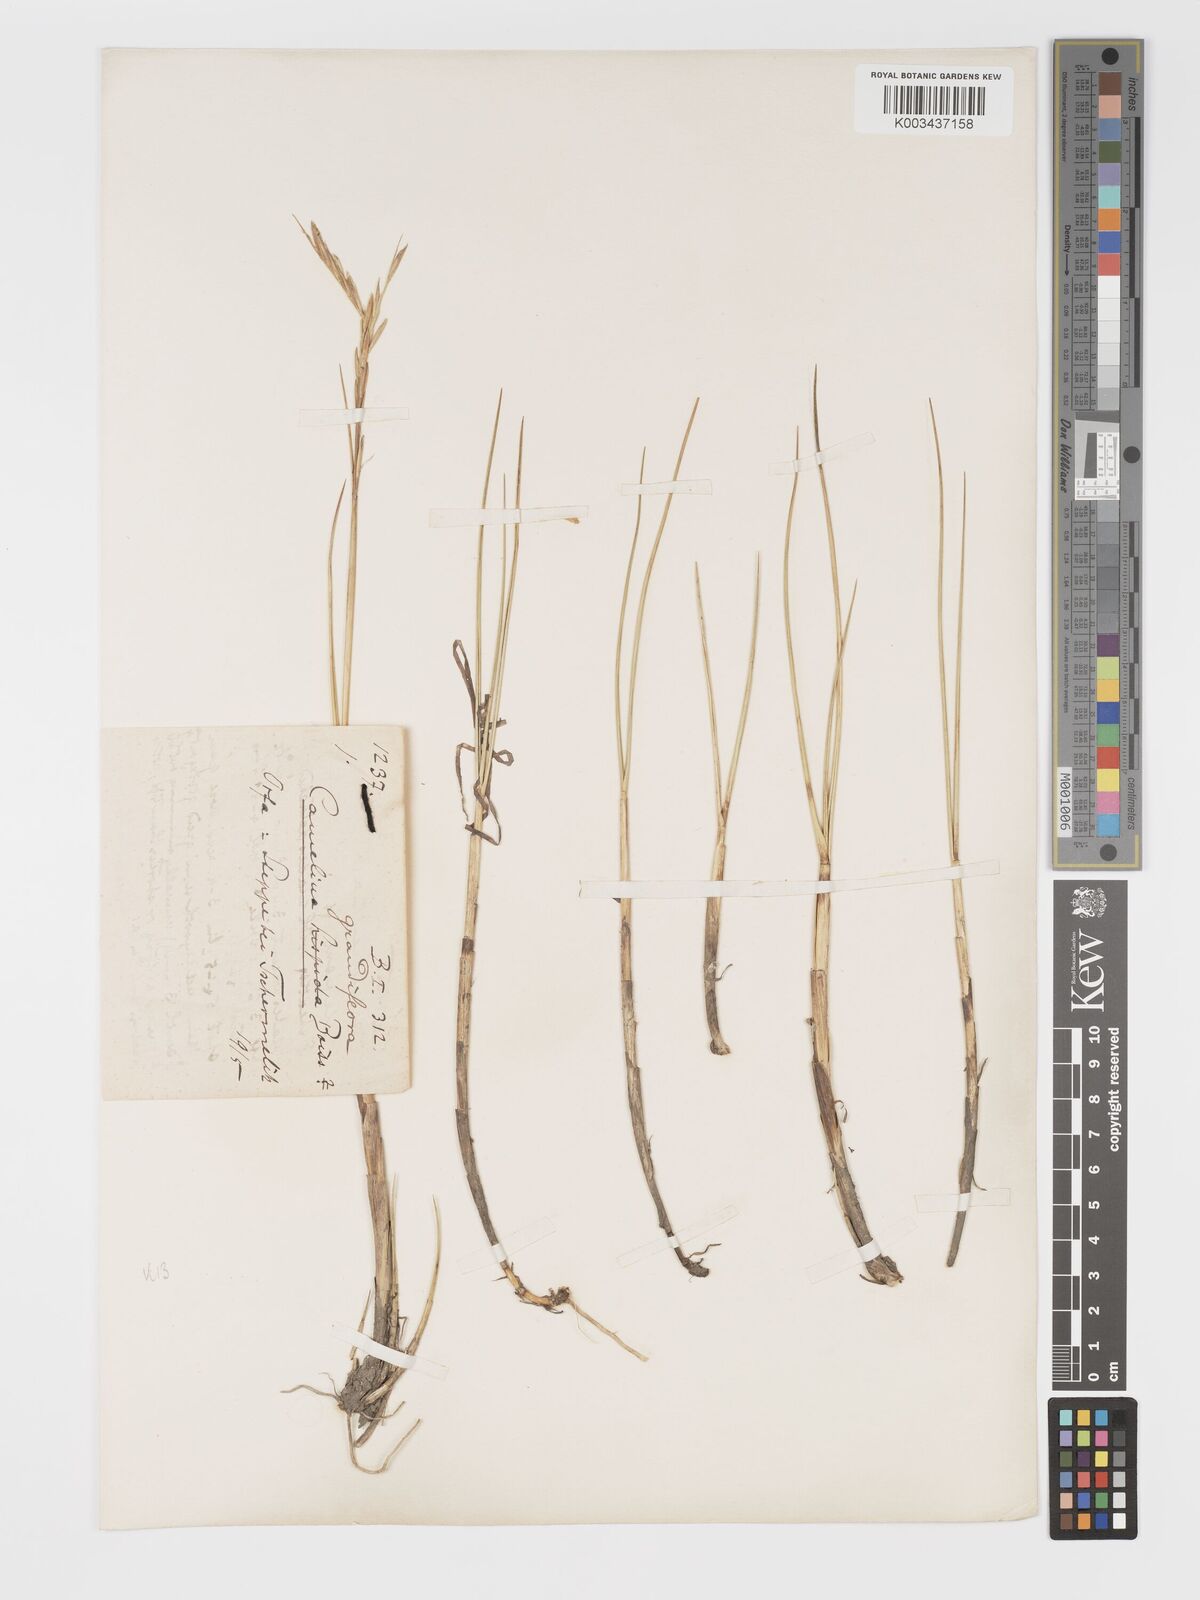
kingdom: Plantae
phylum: Tracheophyta
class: Liliopsida
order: Poales
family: Poaceae
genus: Sporobolus
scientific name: Sporobolus maritimus
